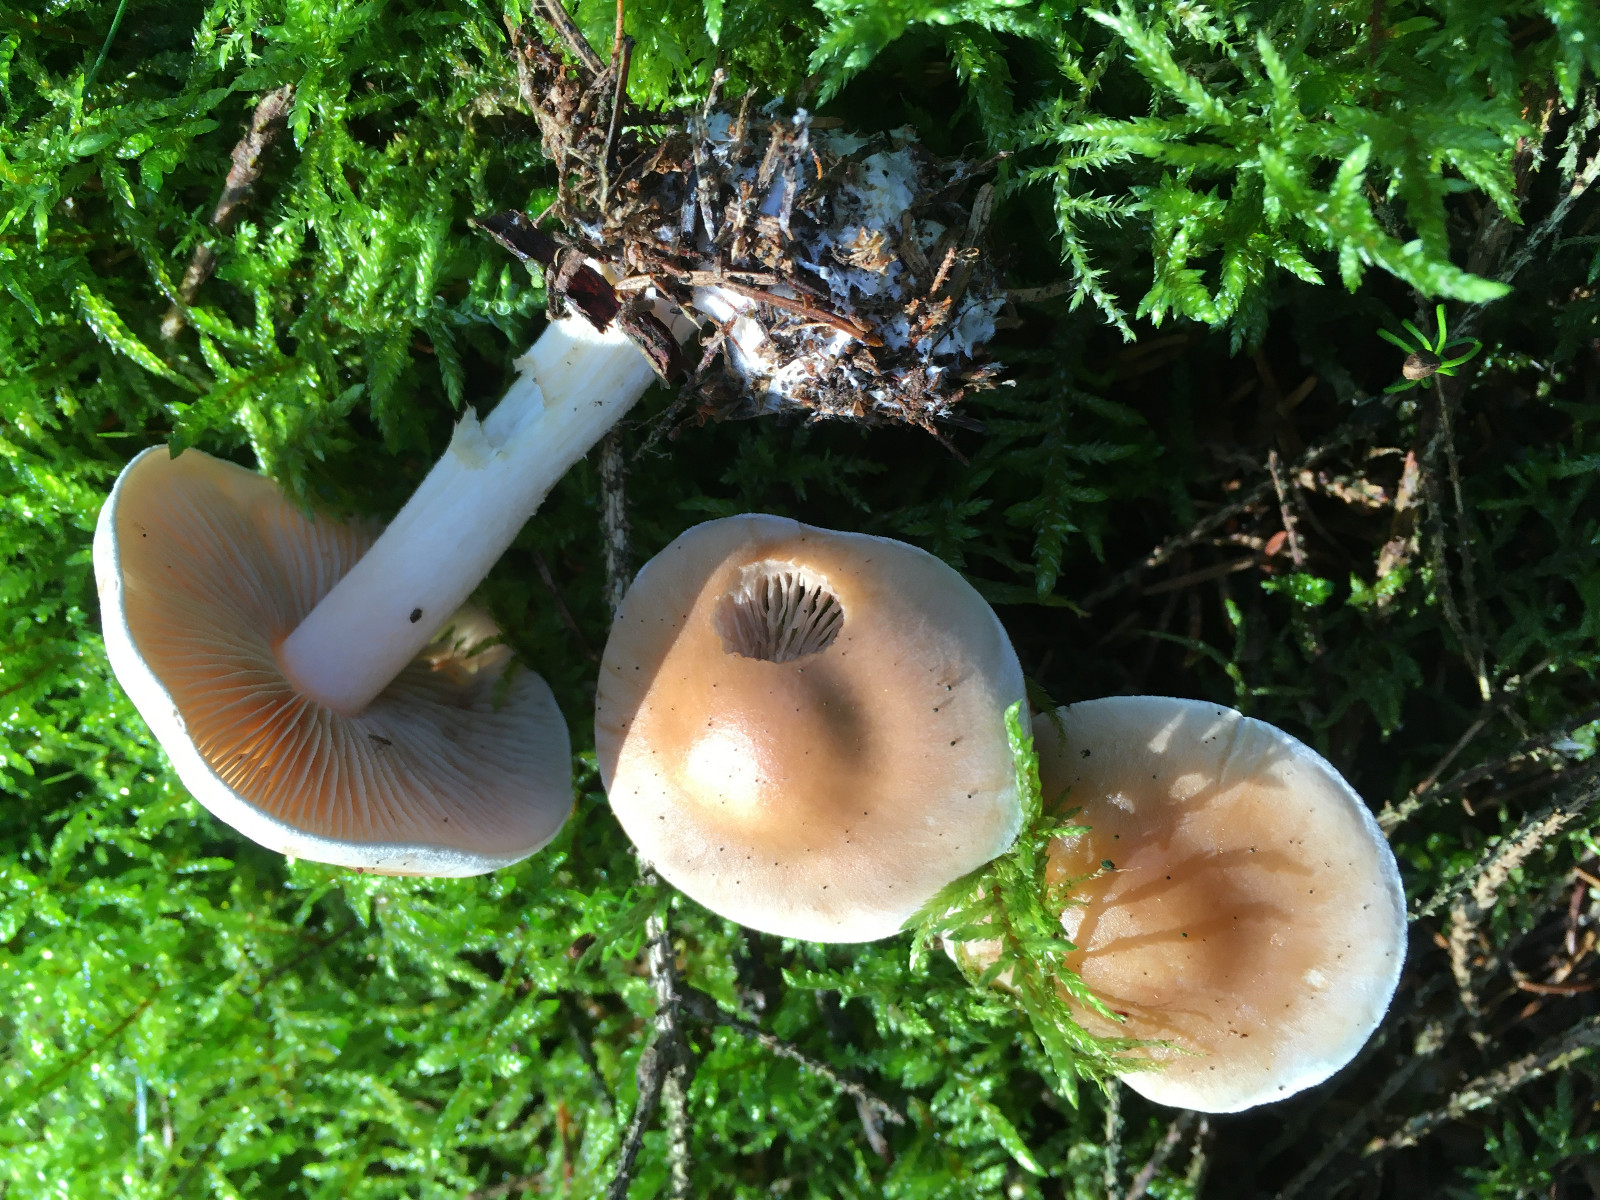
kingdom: Fungi
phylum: Basidiomycota
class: Agaricomycetes
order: Agaricales
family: Hymenogastraceae
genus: Hebeloma
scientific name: Hebeloma leucosarx
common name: højstokket tåreblad
